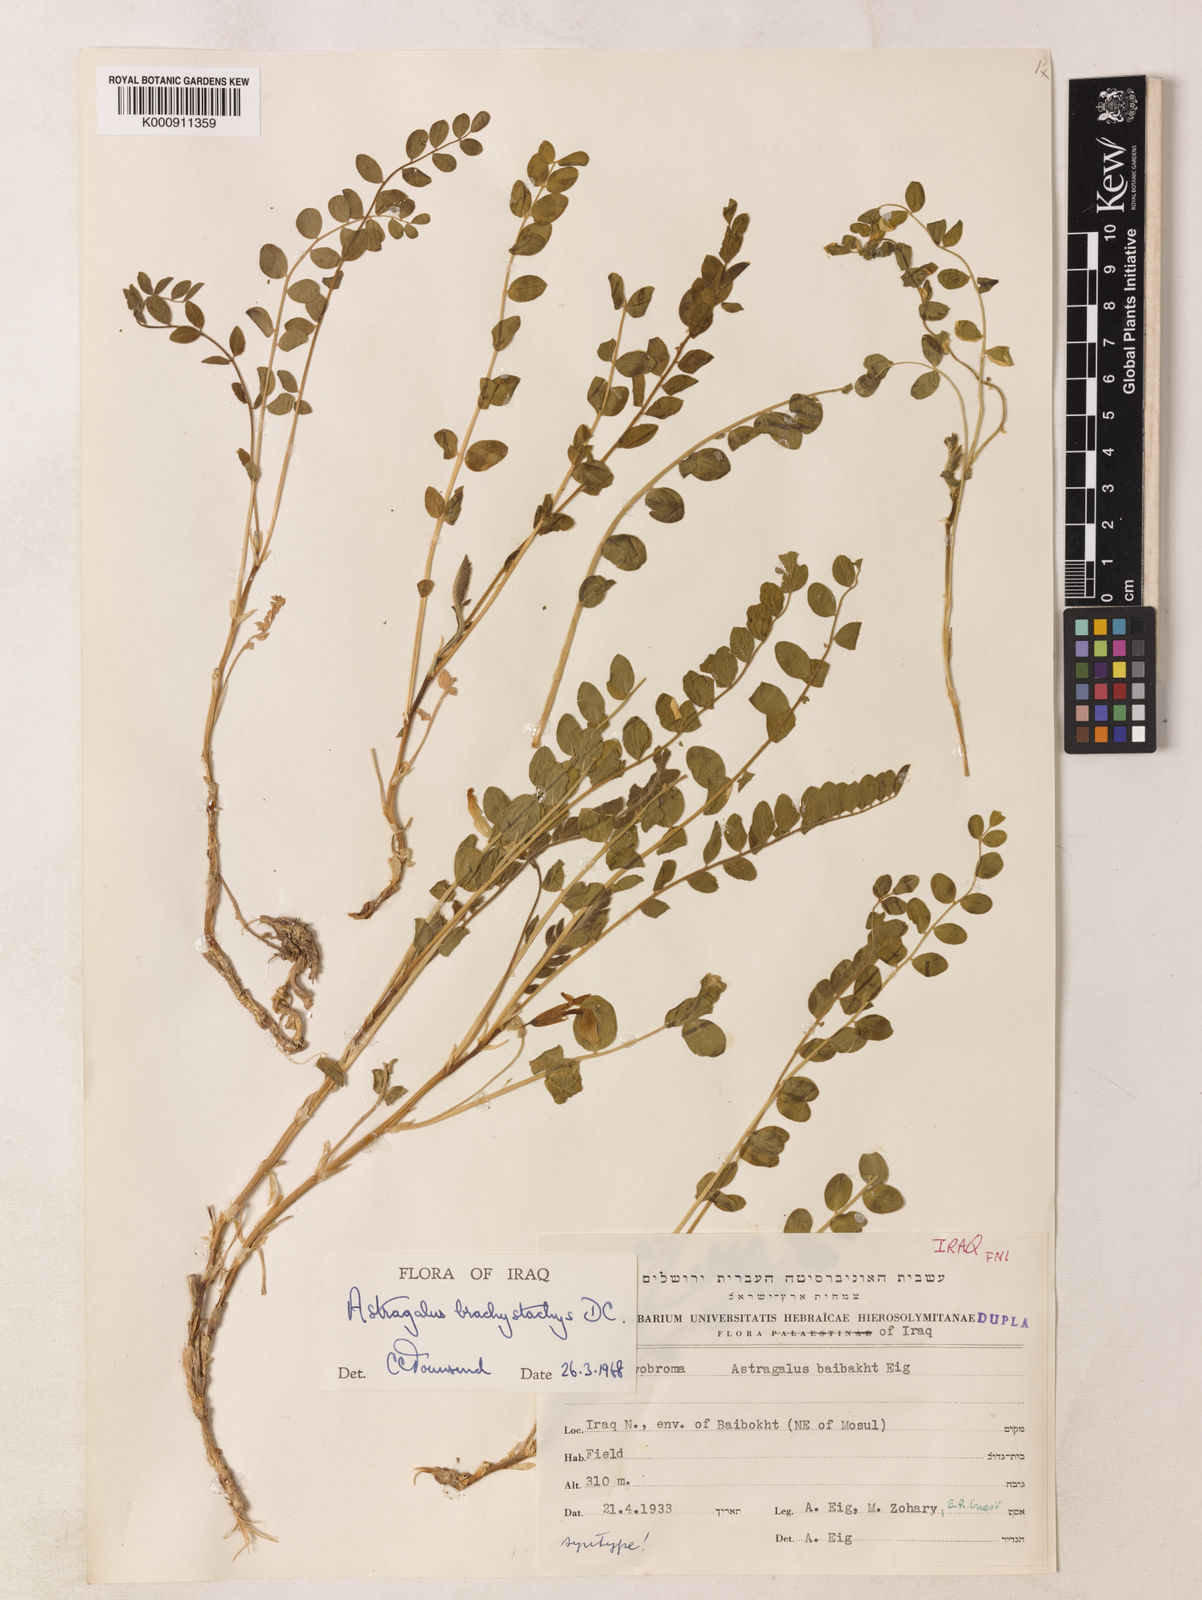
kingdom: Plantae
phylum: Tracheophyta
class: Magnoliopsida
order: Fabales
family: Fabaceae
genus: Astragalus
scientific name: Astragalus brachystachys
